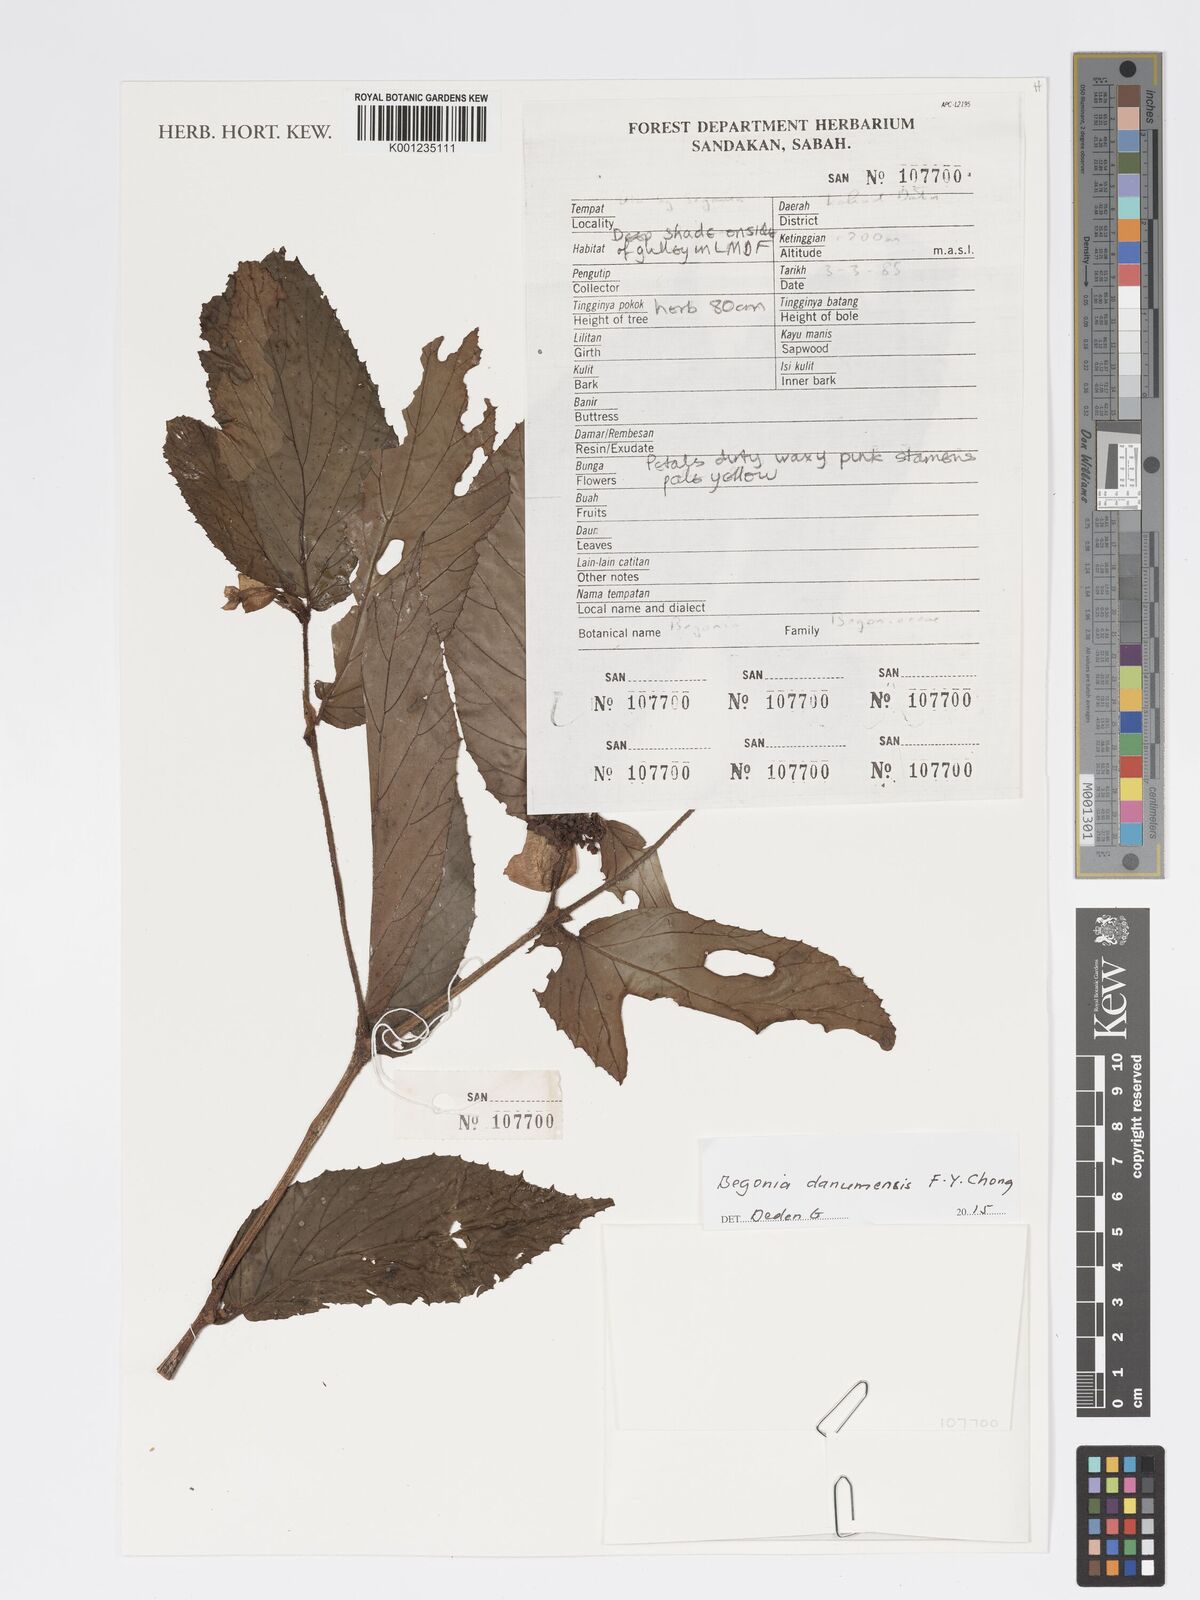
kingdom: Plantae
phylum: Tracheophyta
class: Magnoliopsida
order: Cucurbitales
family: Begoniaceae
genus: Begonia
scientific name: Begonia danumensis
